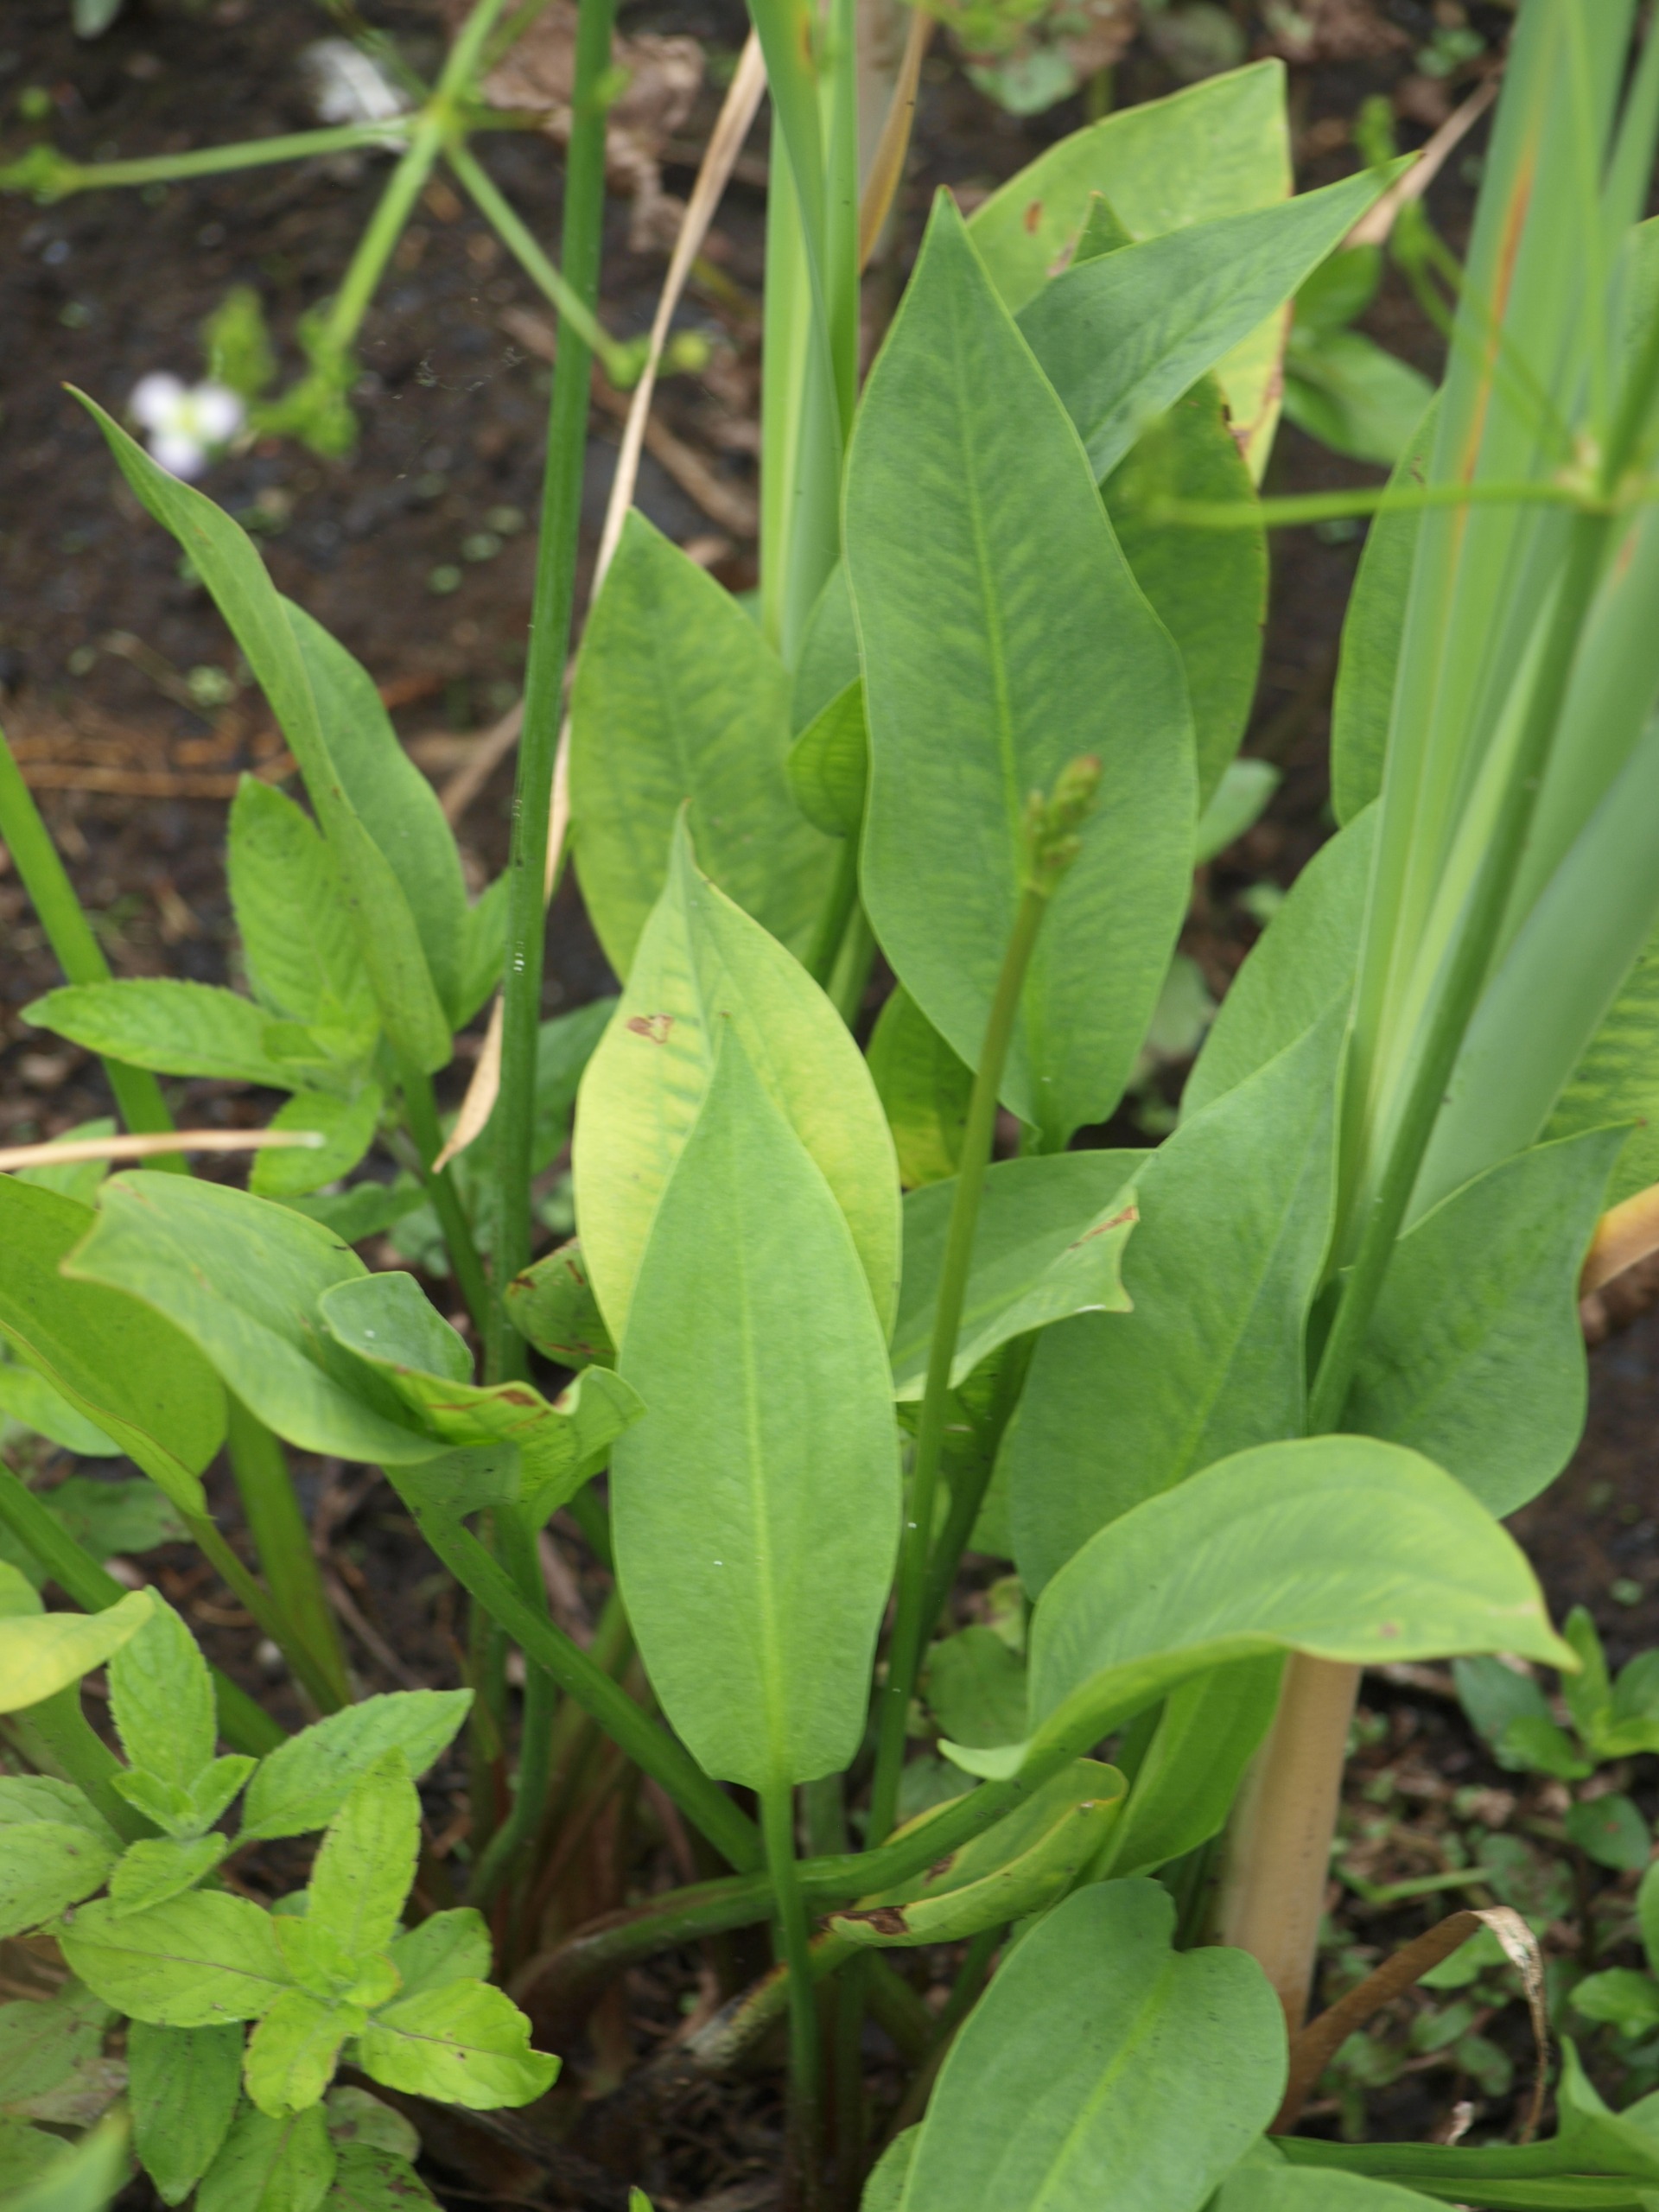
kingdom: Plantae
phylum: Tracheophyta
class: Liliopsida
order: Alismatales
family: Alismataceae
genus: Alisma
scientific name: Alisma plantago-aquatica
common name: Vejbred-skeblad
